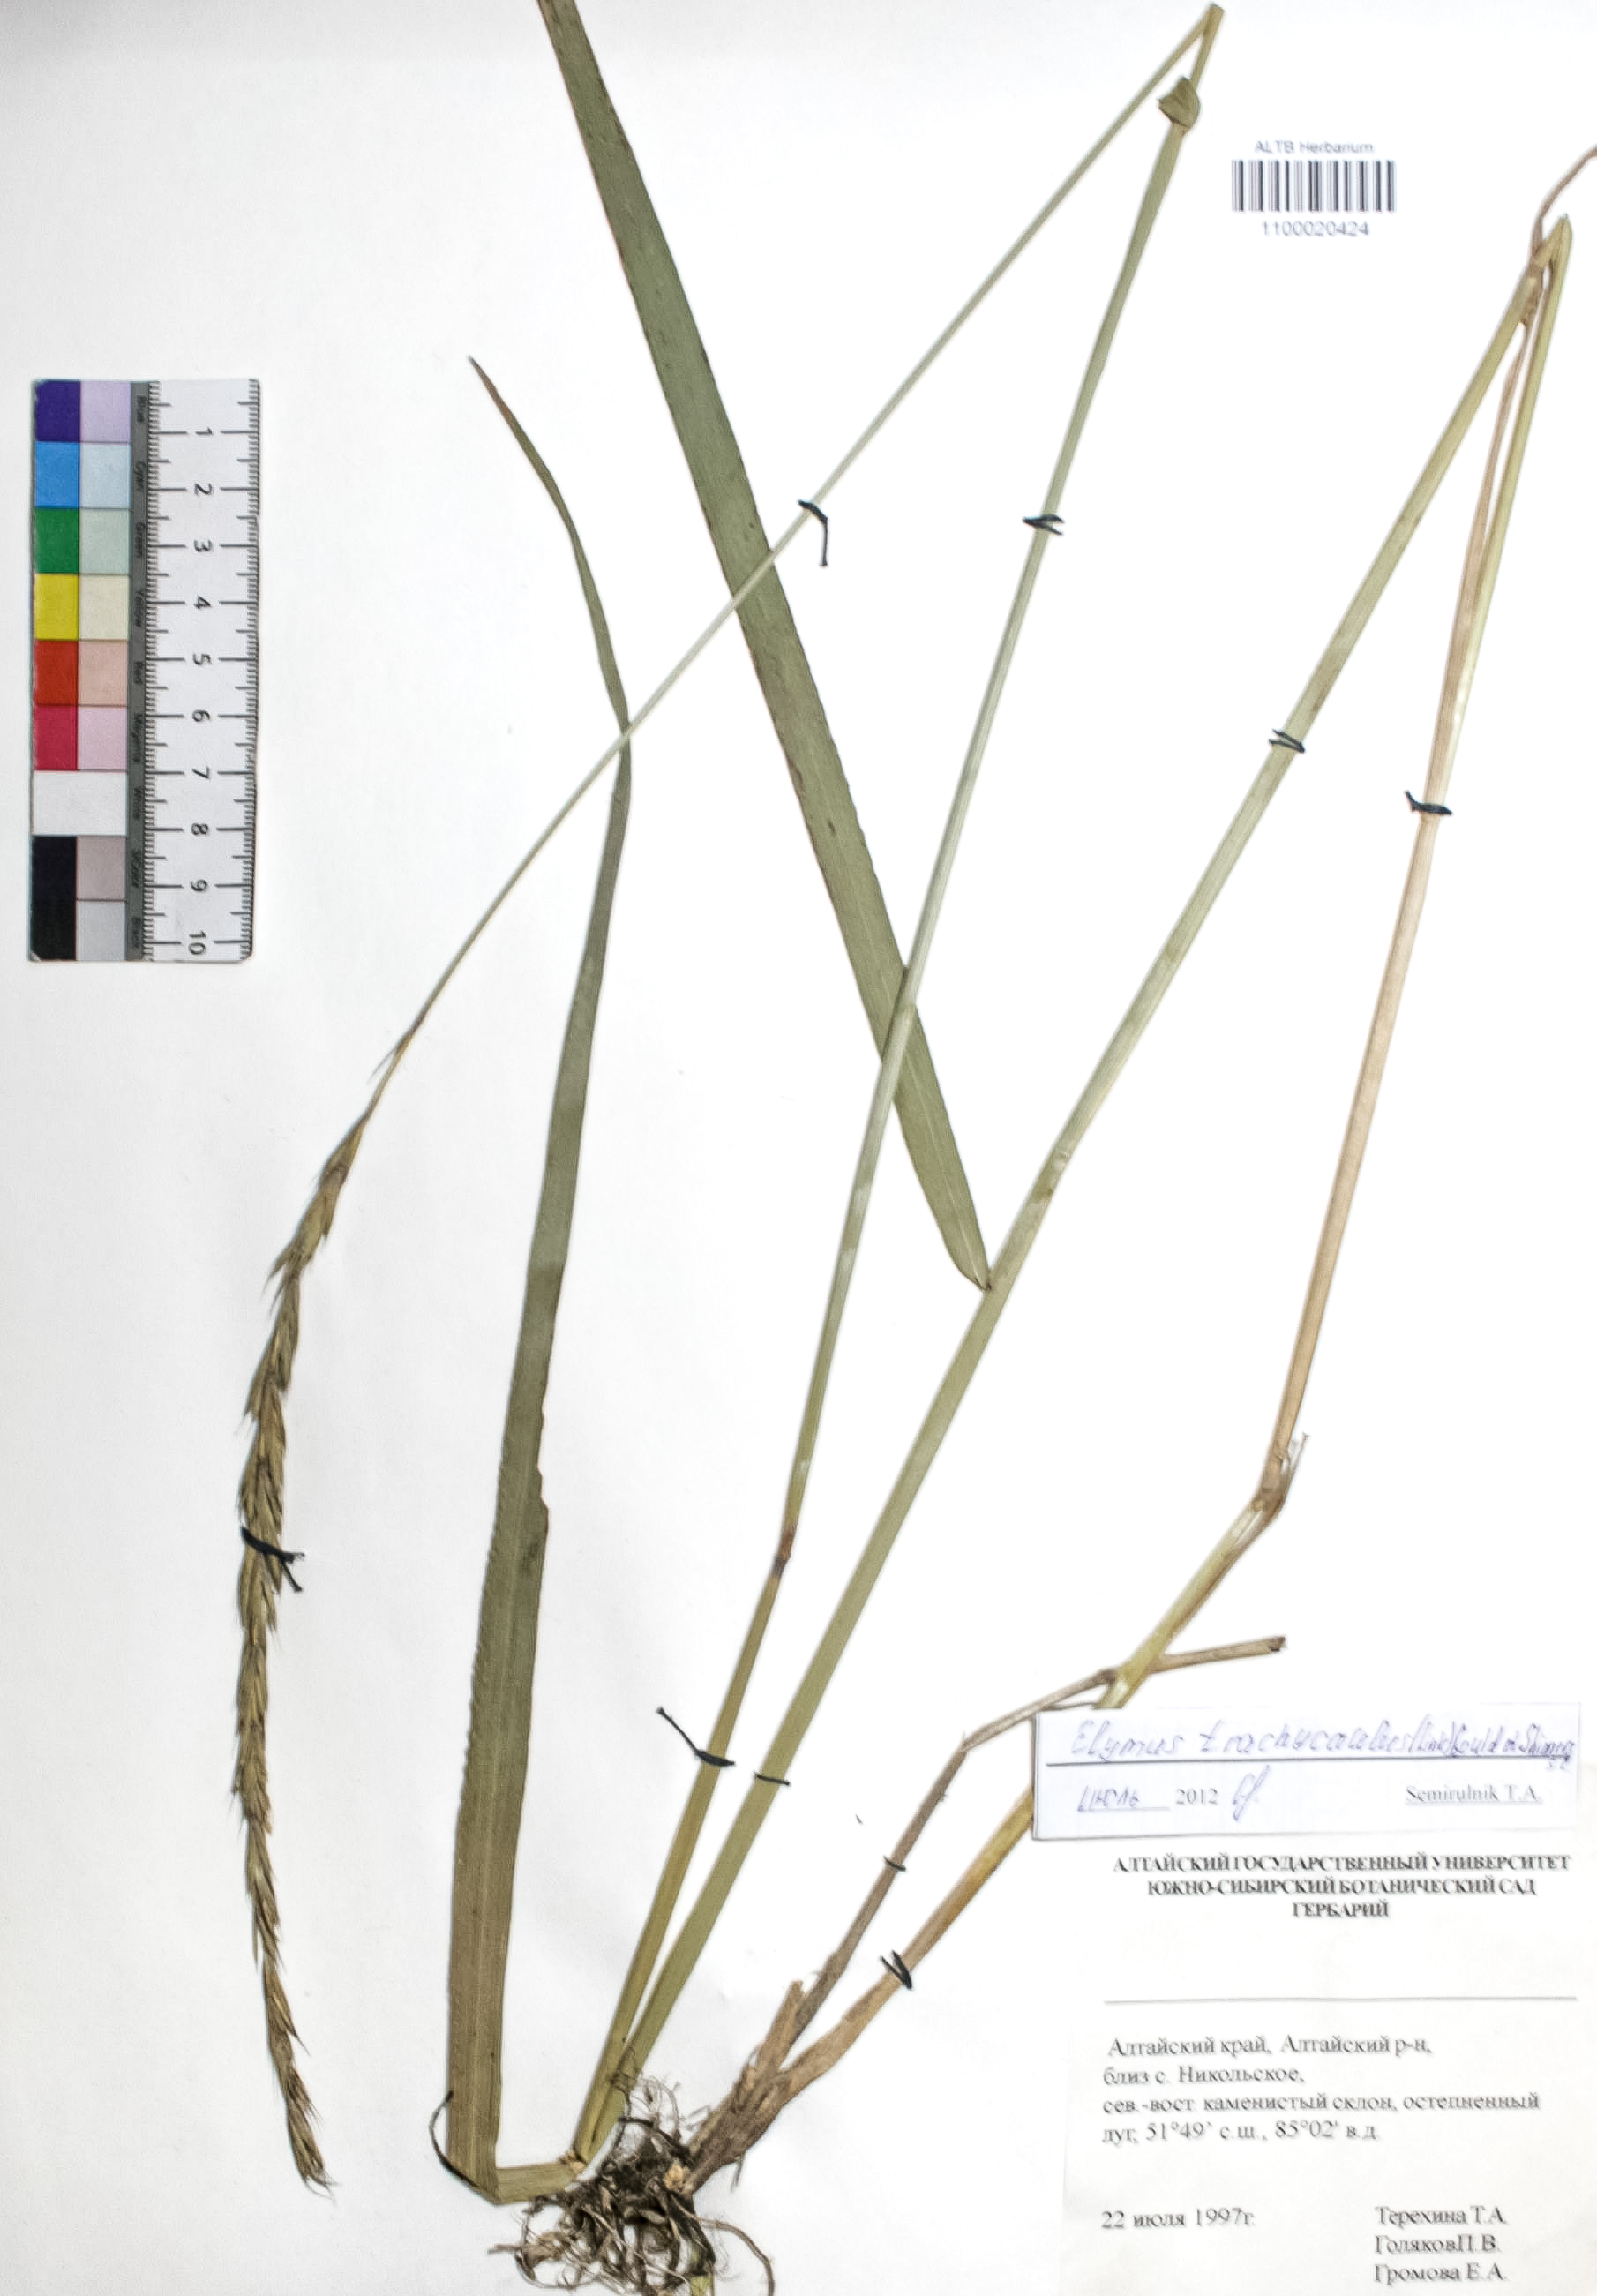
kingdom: Plantae
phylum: Tracheophyta
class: Liliopsida
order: Poales
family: Poaceae
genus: Elymus
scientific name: Elymus violaceus
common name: Arctic wheatgrass
